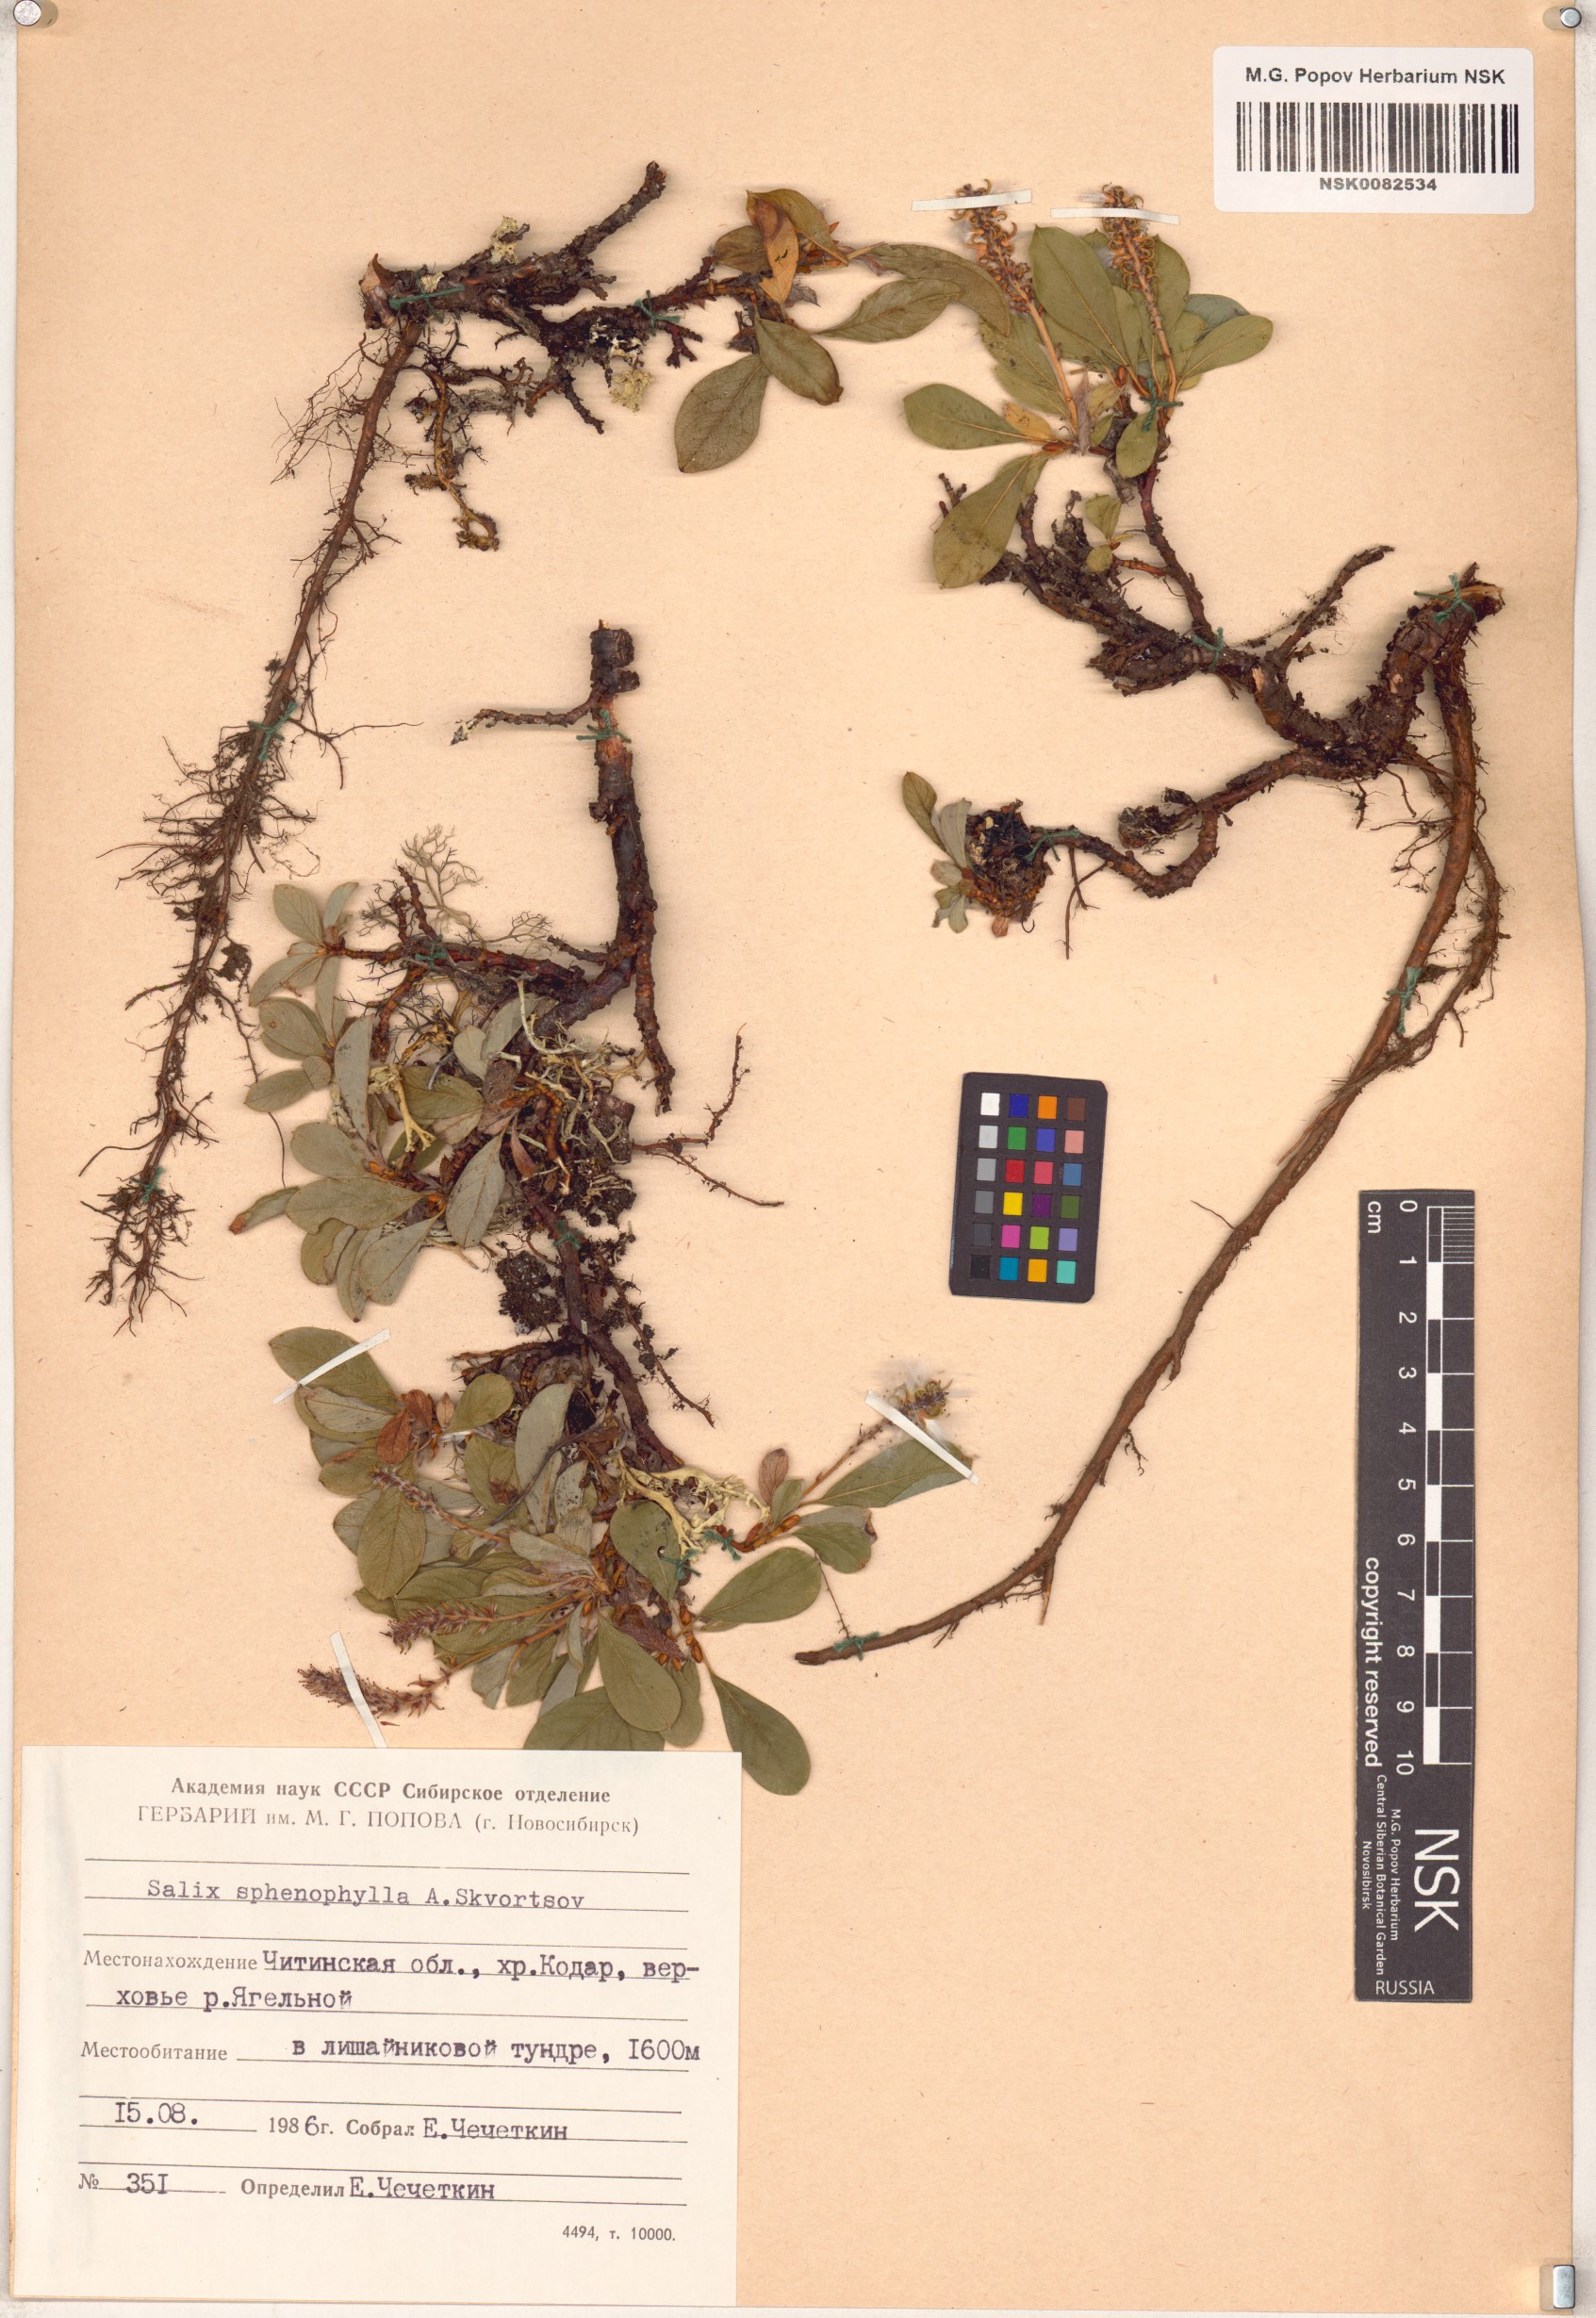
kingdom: Plantae
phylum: Tracheophyta
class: Magnoliopsida
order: Malpighiales
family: Salicaceae
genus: Salix
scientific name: Salix sphenophylla
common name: Wedge-leaved willow
